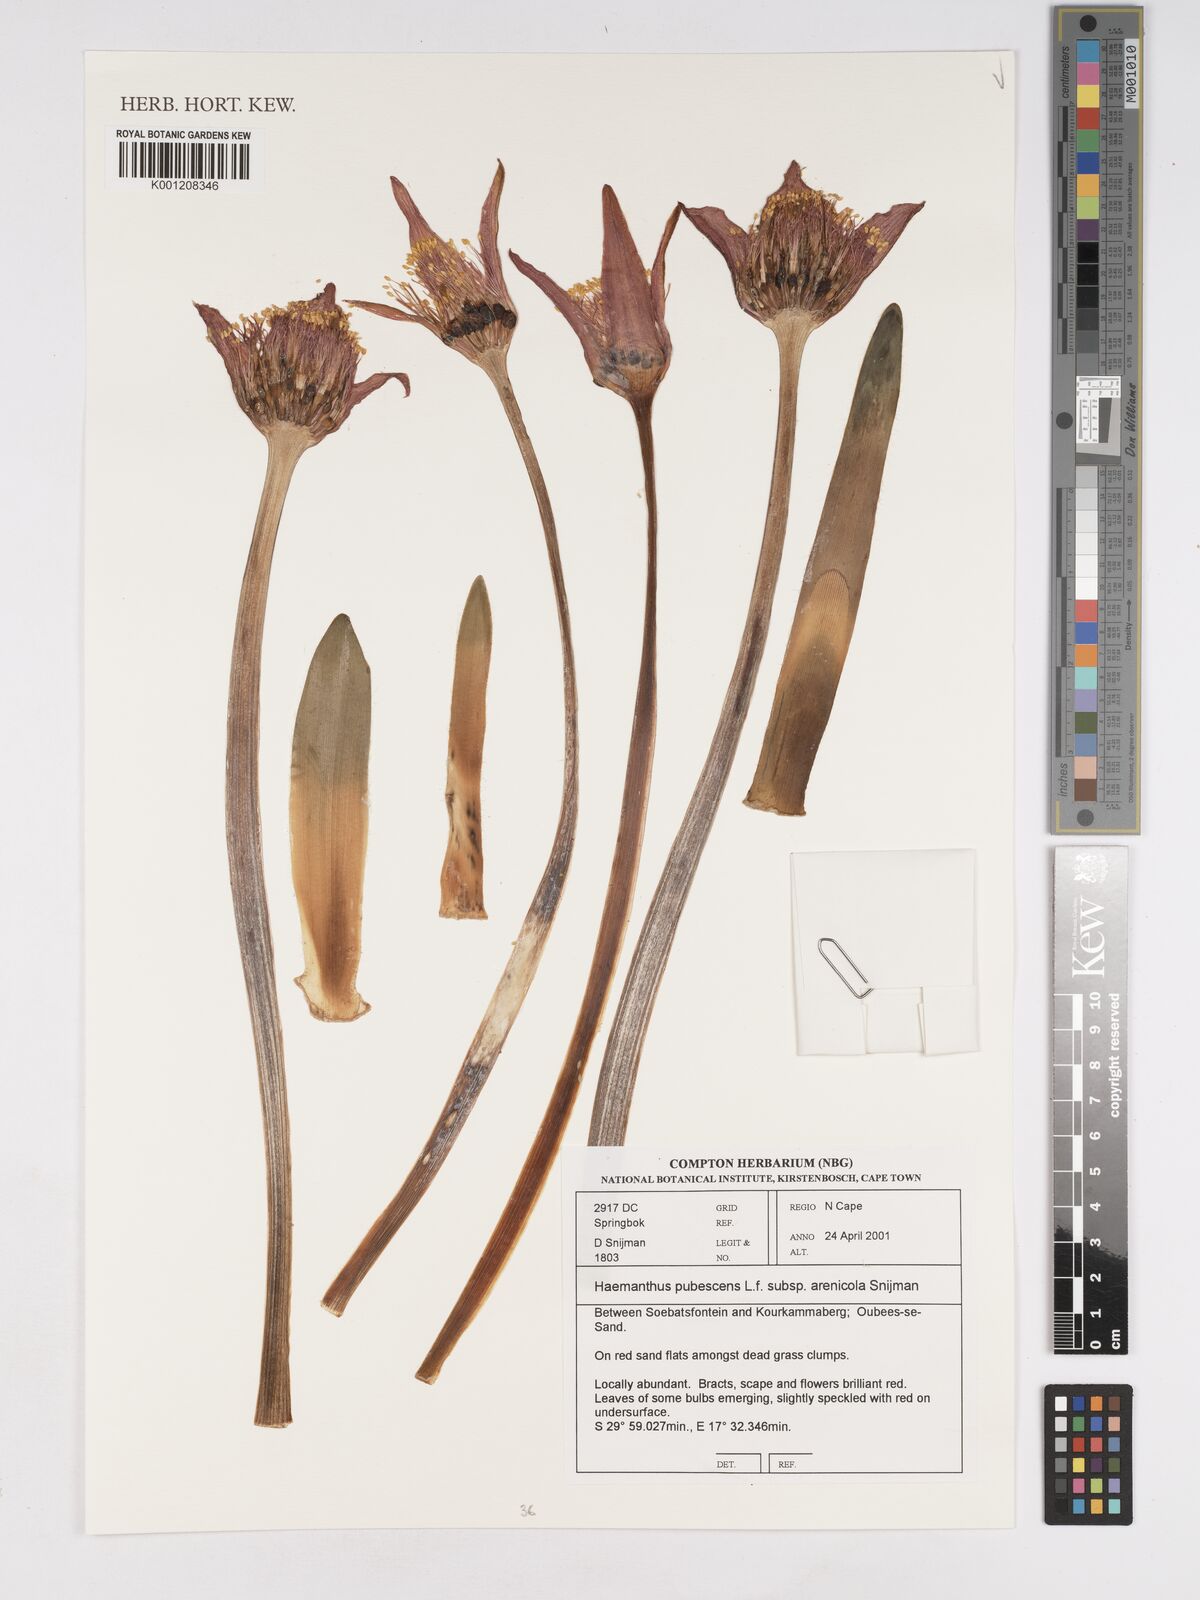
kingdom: Plantae
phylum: Tracheophyta
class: Liliopsida
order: Asparagales
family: Amaryllidaceae
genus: Haemanthus
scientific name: Haemanthus pubescens
